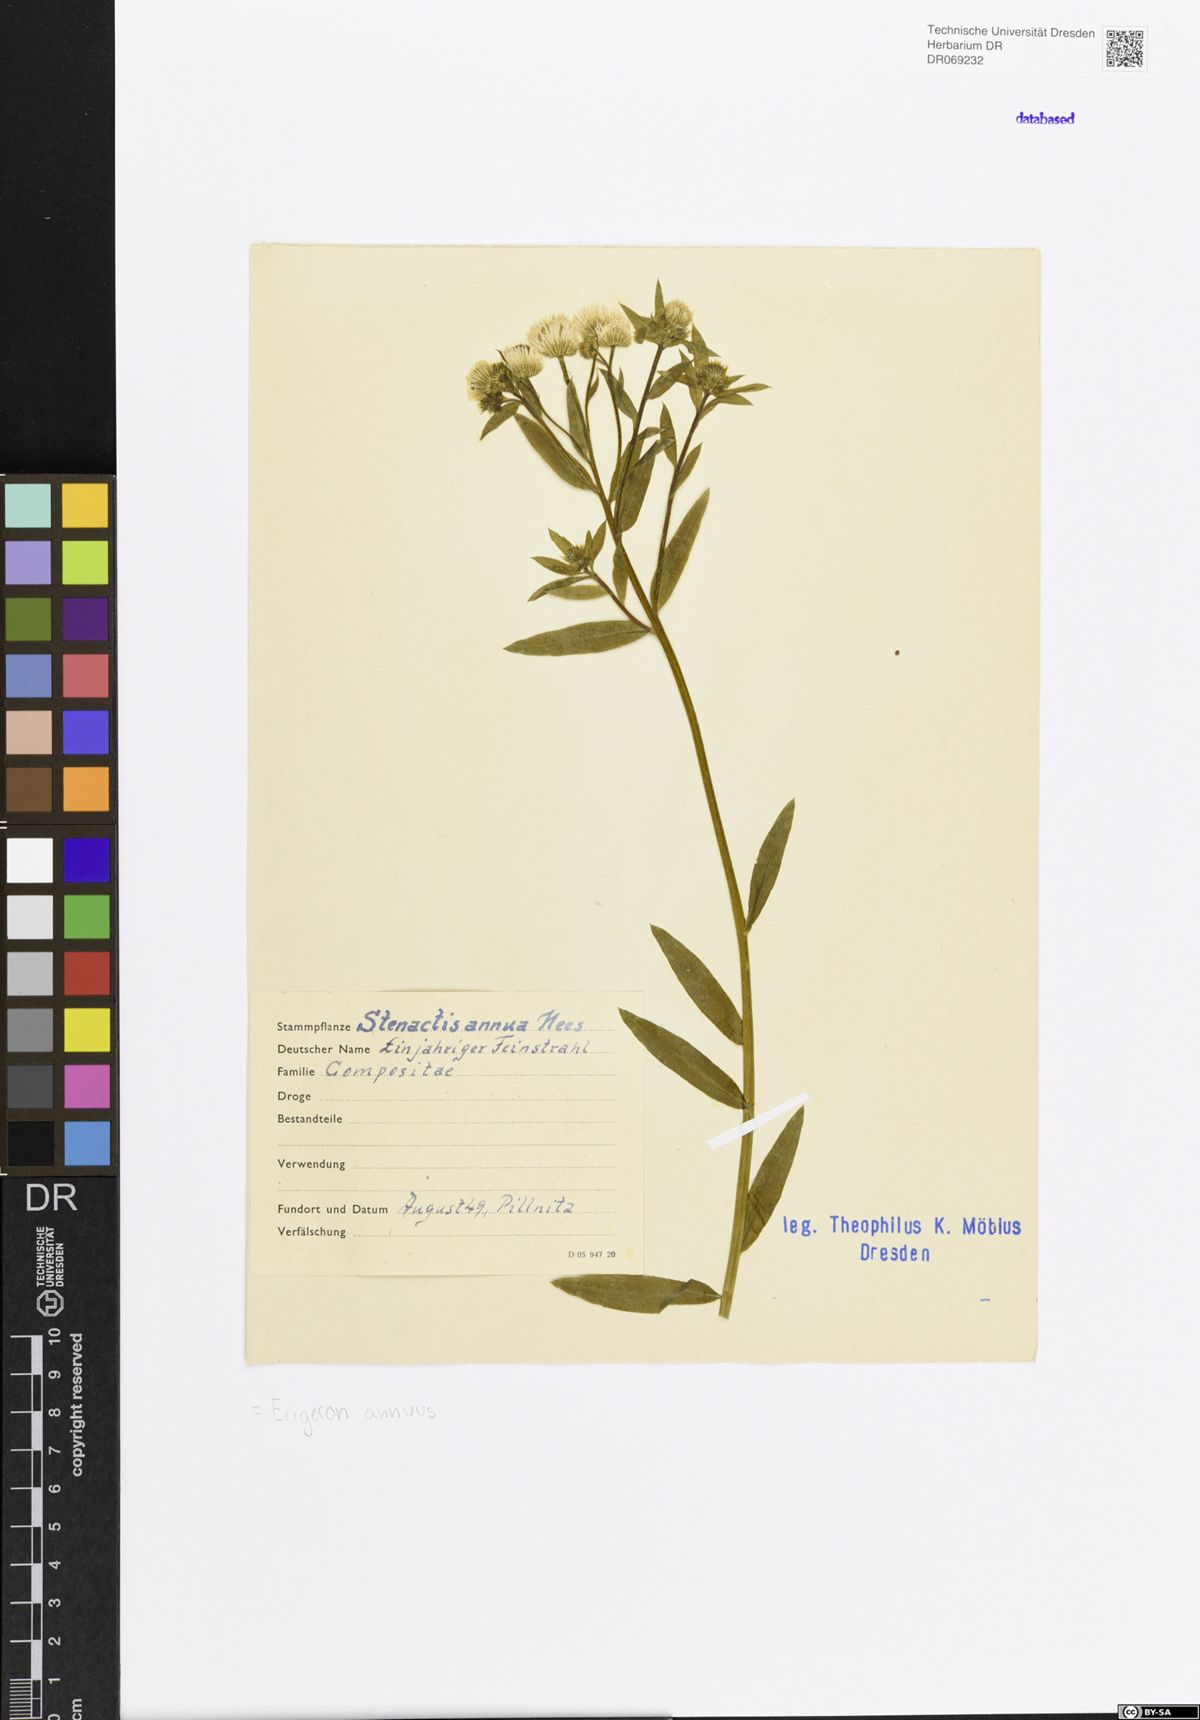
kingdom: Plantae
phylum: Tracheophyta
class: Magnoliopsida
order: Asterales
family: Asteraceae
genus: Erigeron
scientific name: Erigeron annuus
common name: Tall fleabane
